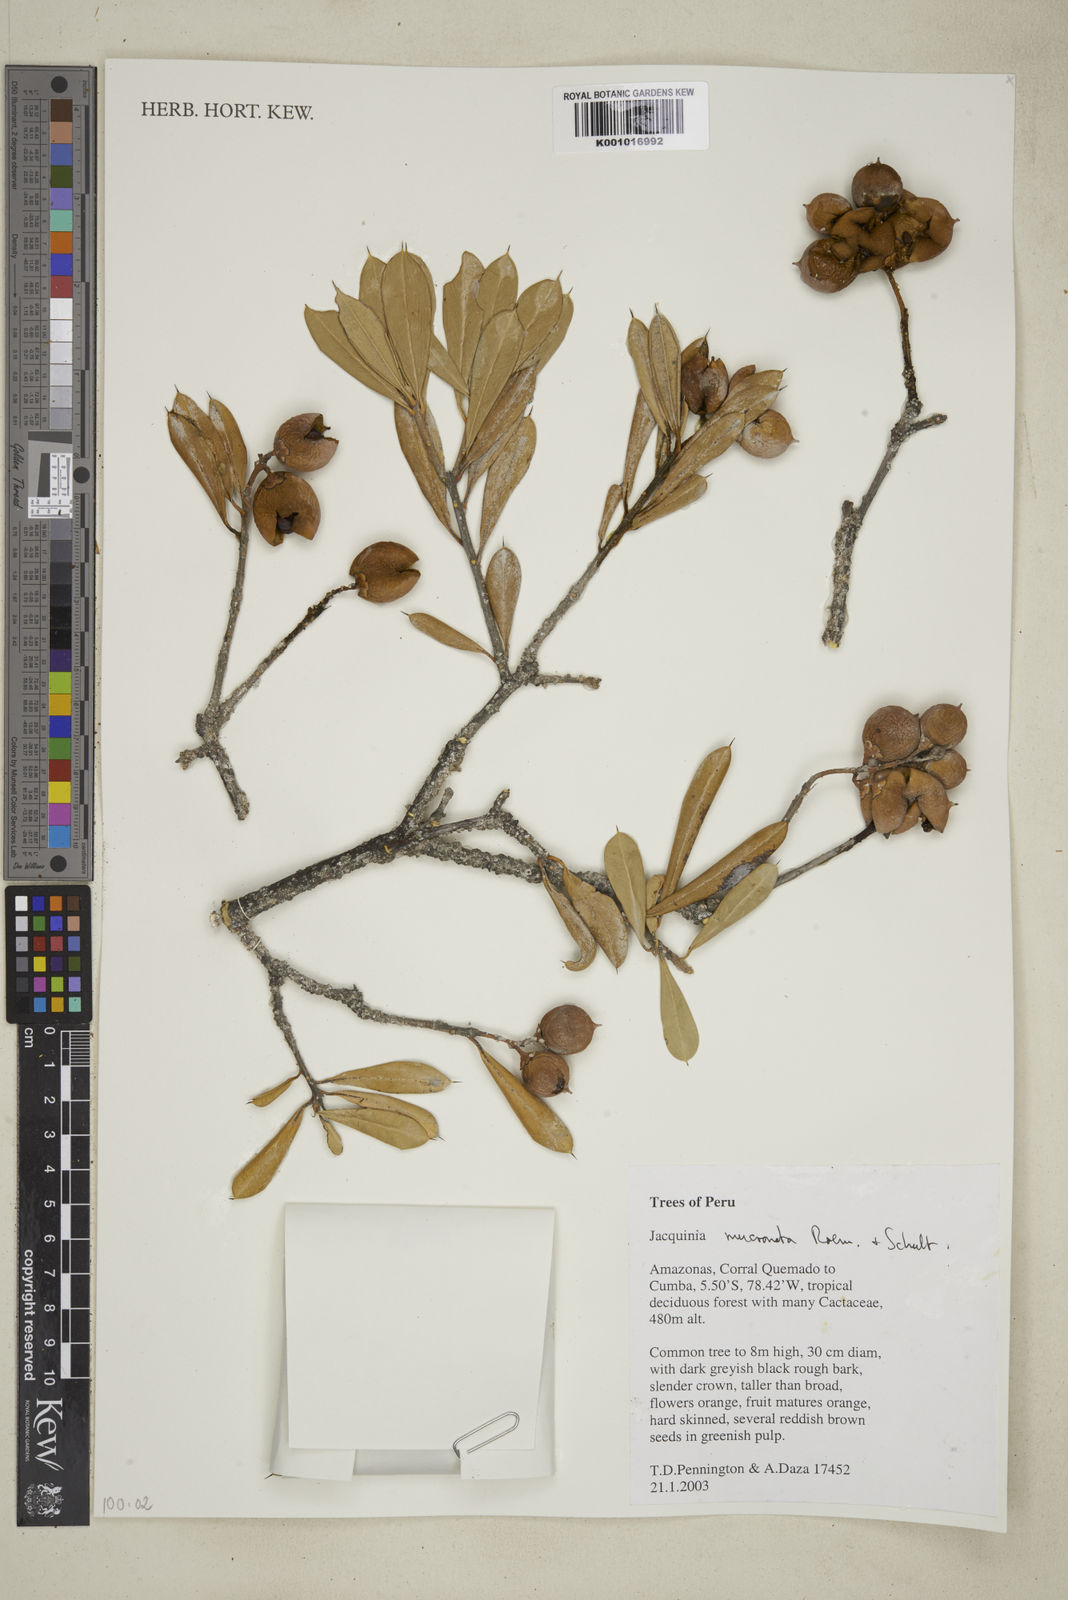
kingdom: Plantae
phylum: Tracheophyta
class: Magnoliopsida
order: Myrtales
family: Melastomataceae
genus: Macrolenes
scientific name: Macrolenes stellulata
